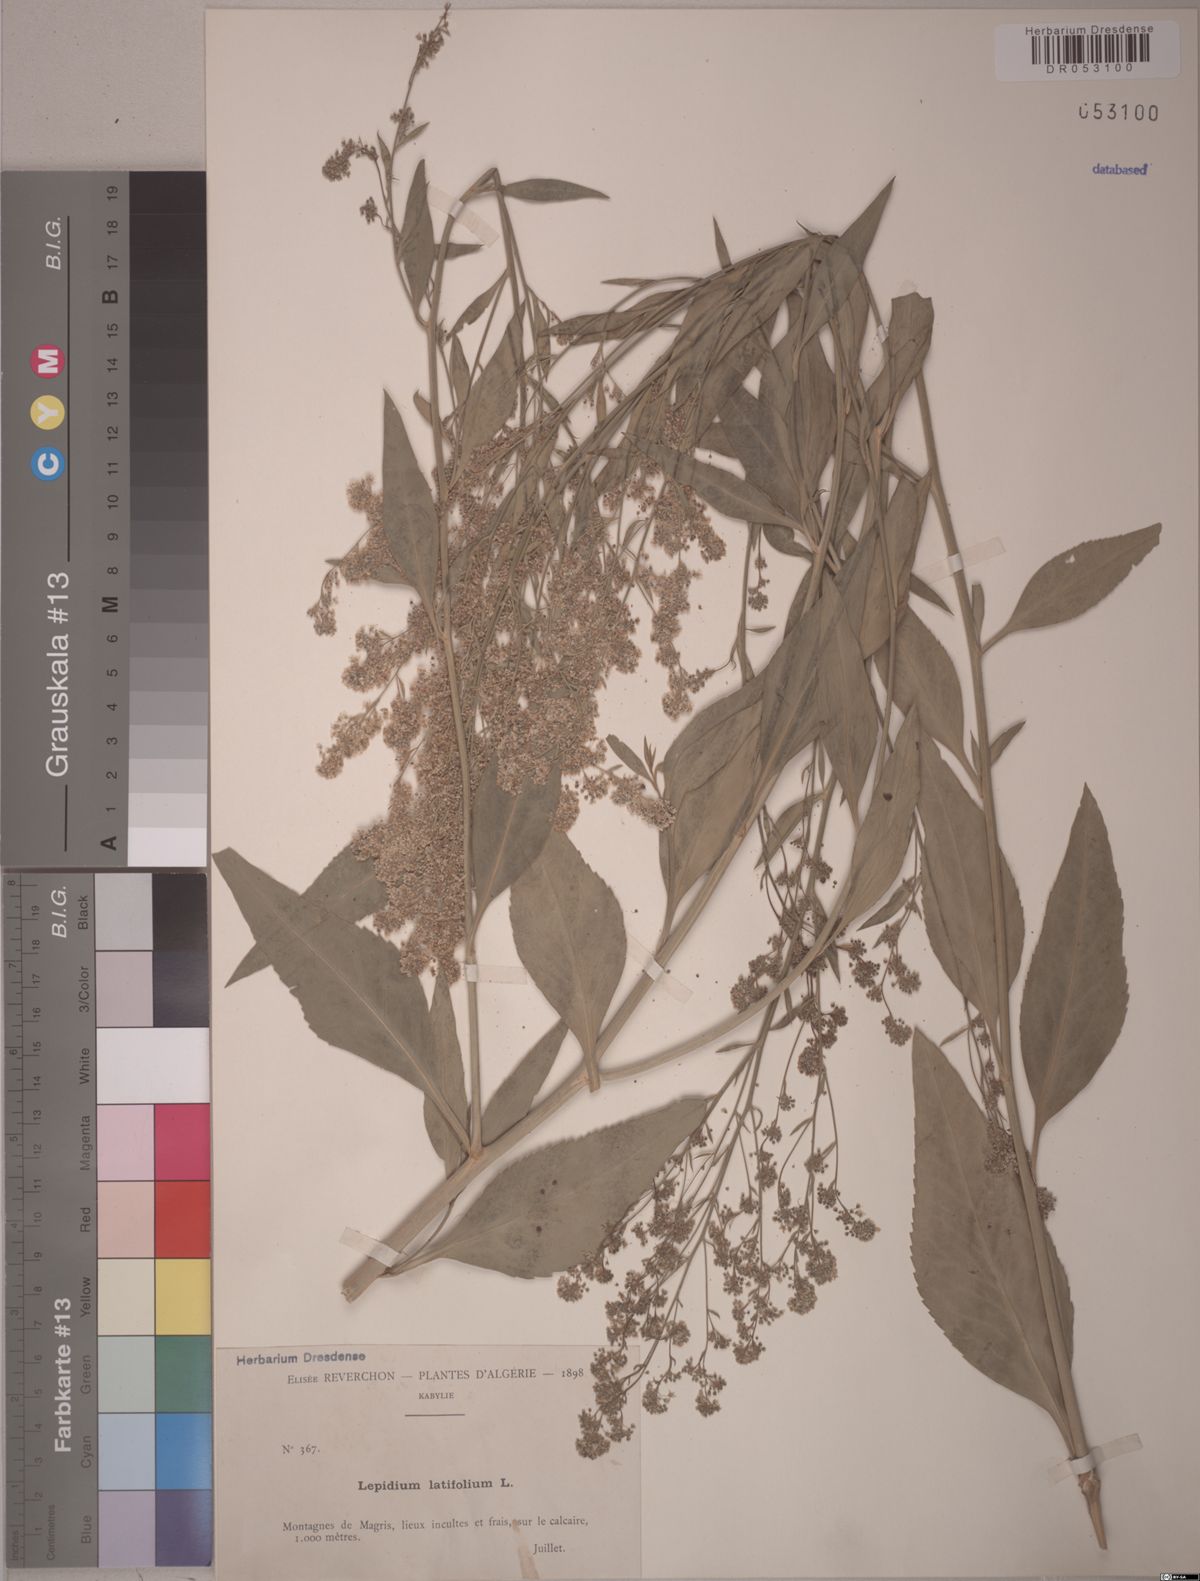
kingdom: Plantae
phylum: Tracheophyta
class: Magnoliopsida
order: Brassicales
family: Brassicaceae
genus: Lepidium
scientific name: Lepidium latifolium
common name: Dittander
